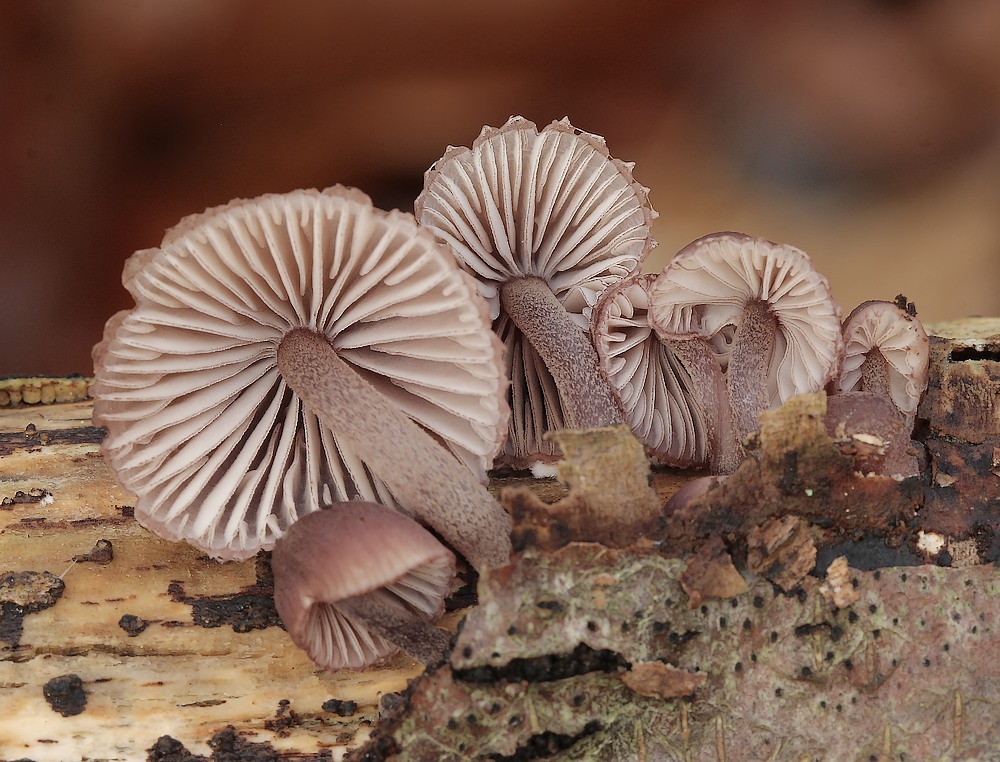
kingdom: Fungi
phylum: Basidiomycota
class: Agaricomycetes
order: Agaricales
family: Mycenaceae
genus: Mycena
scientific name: Mycena haematopus
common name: blødende huesvamp
